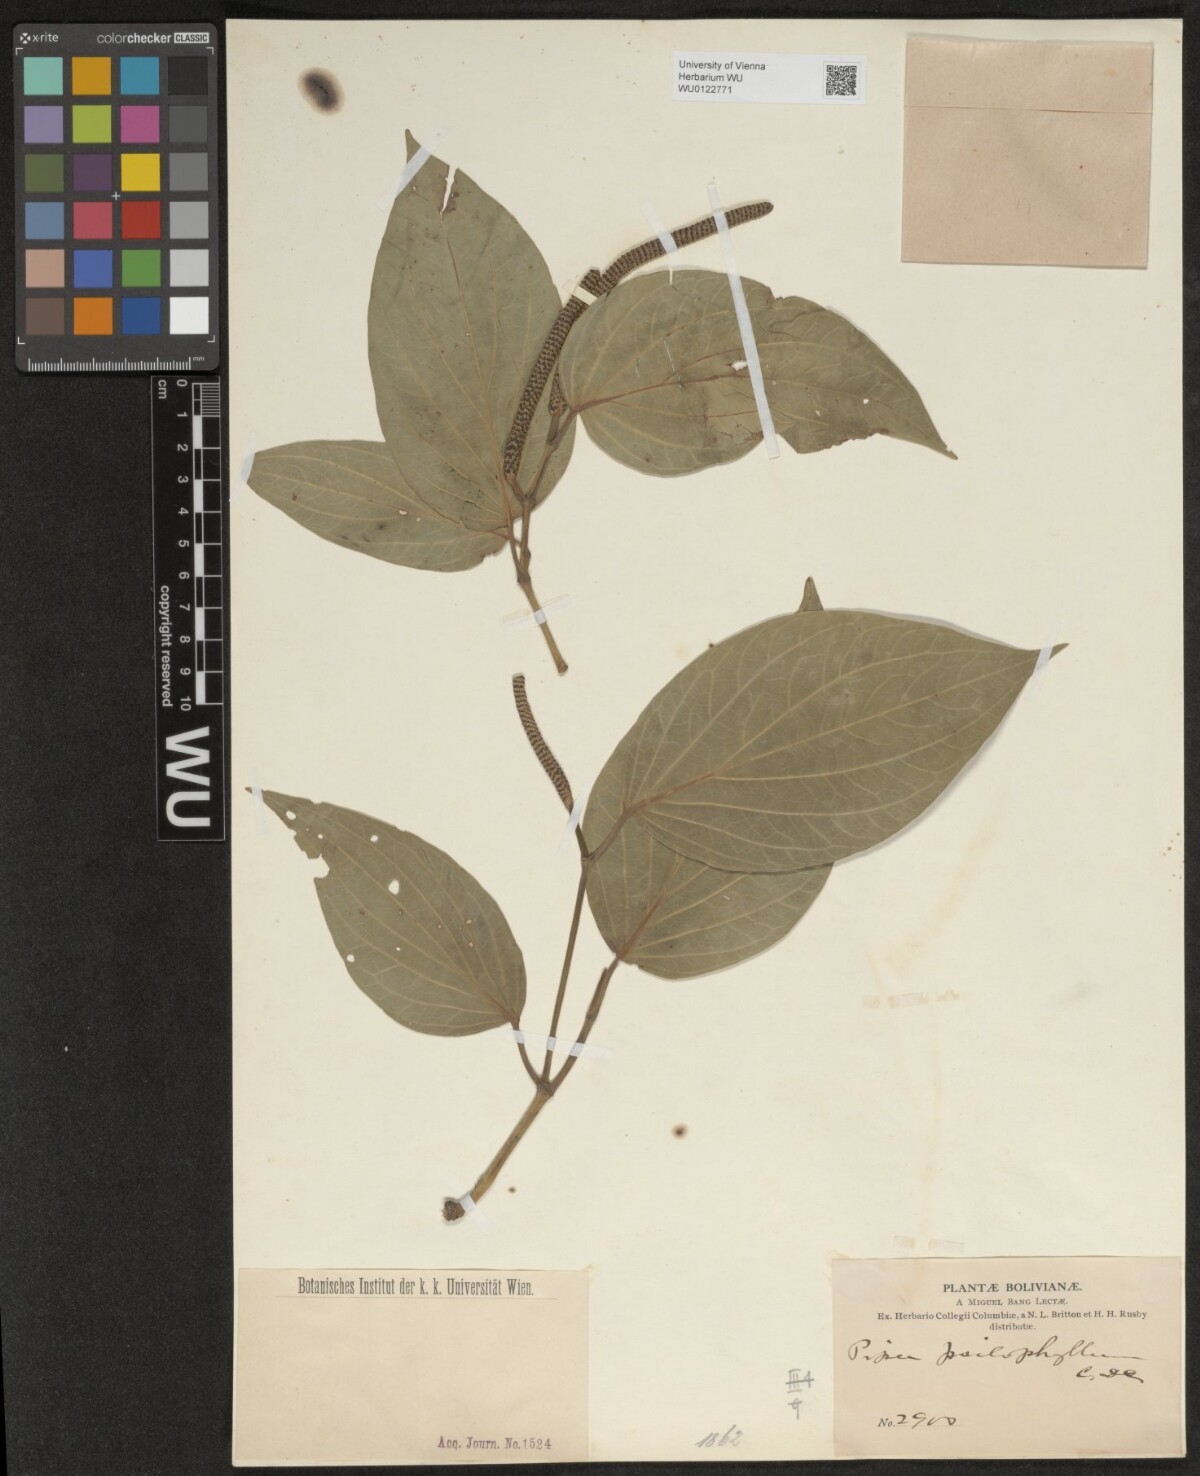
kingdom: Plantae
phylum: Tracheophyta
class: Magnoliopsida
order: Piperales
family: Piperaceae
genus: Piper
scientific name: Piper psilophyllum
